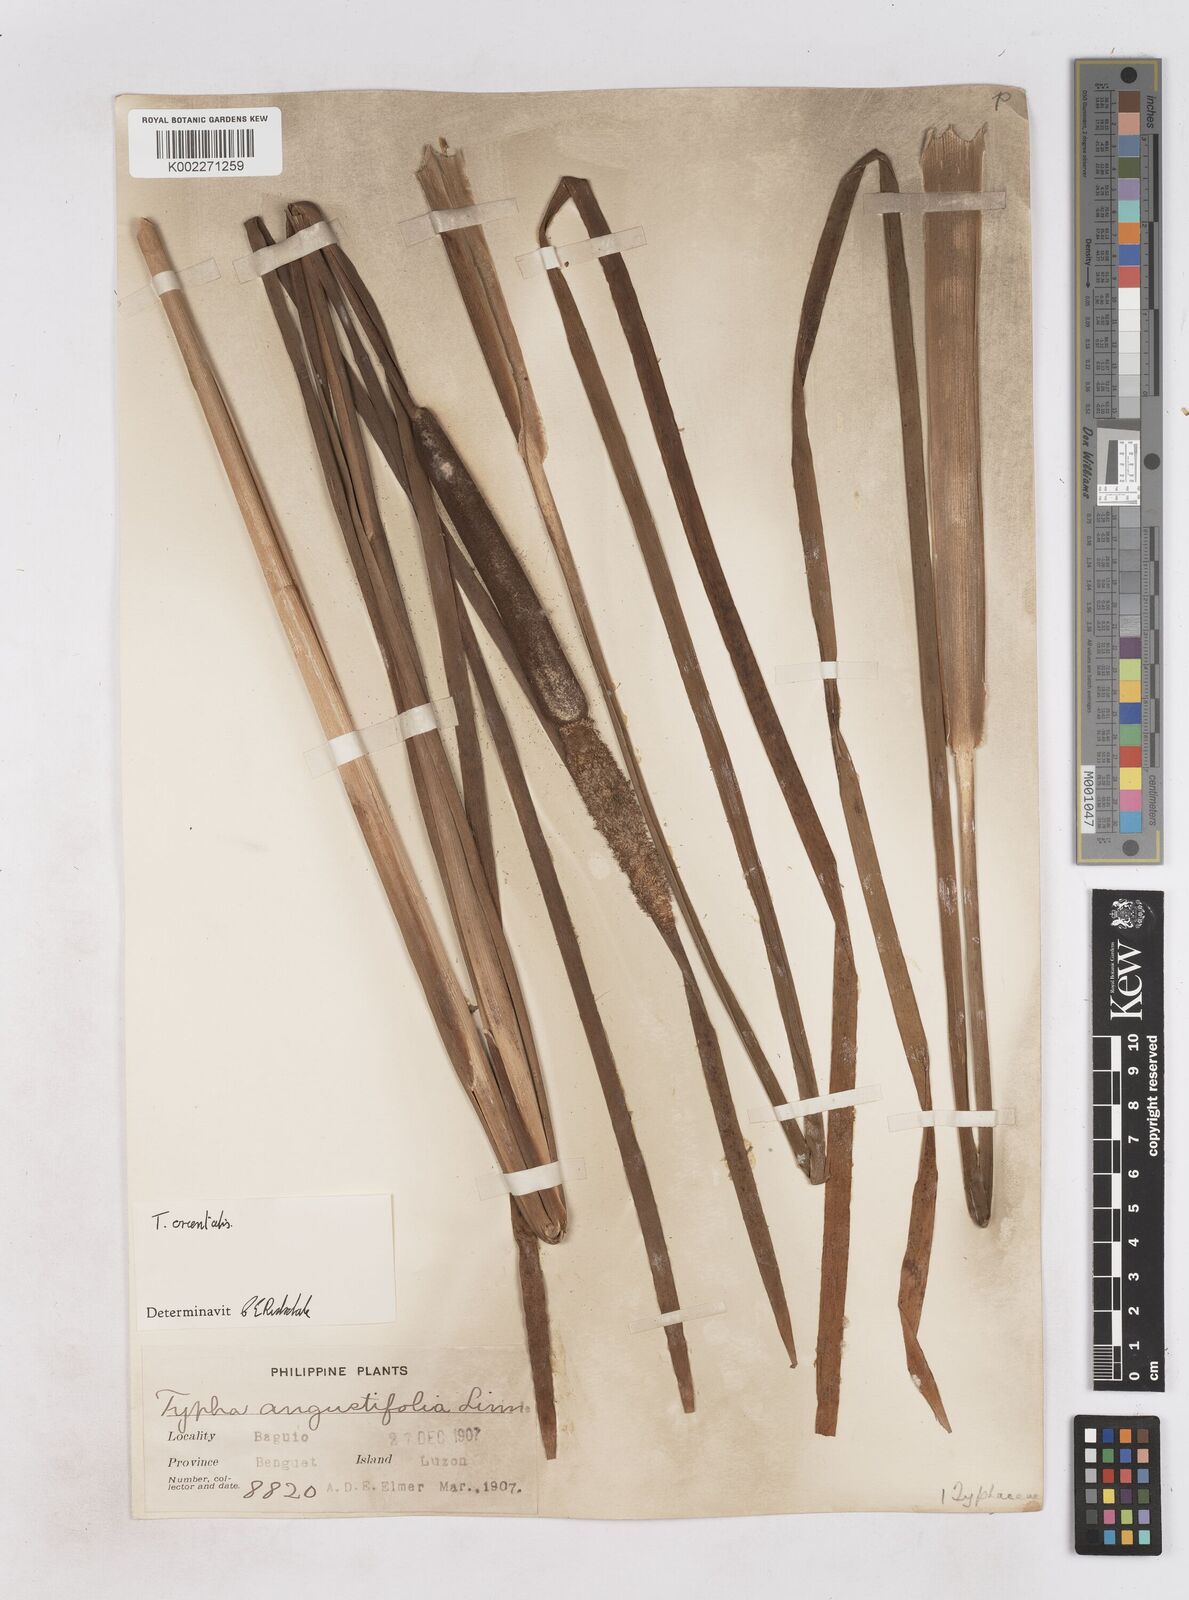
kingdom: Plantae
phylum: Tracheophyta
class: Liliopsida
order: Poales
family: Typhaceae
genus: Typha
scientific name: Typha orientalis
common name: Bullrush
